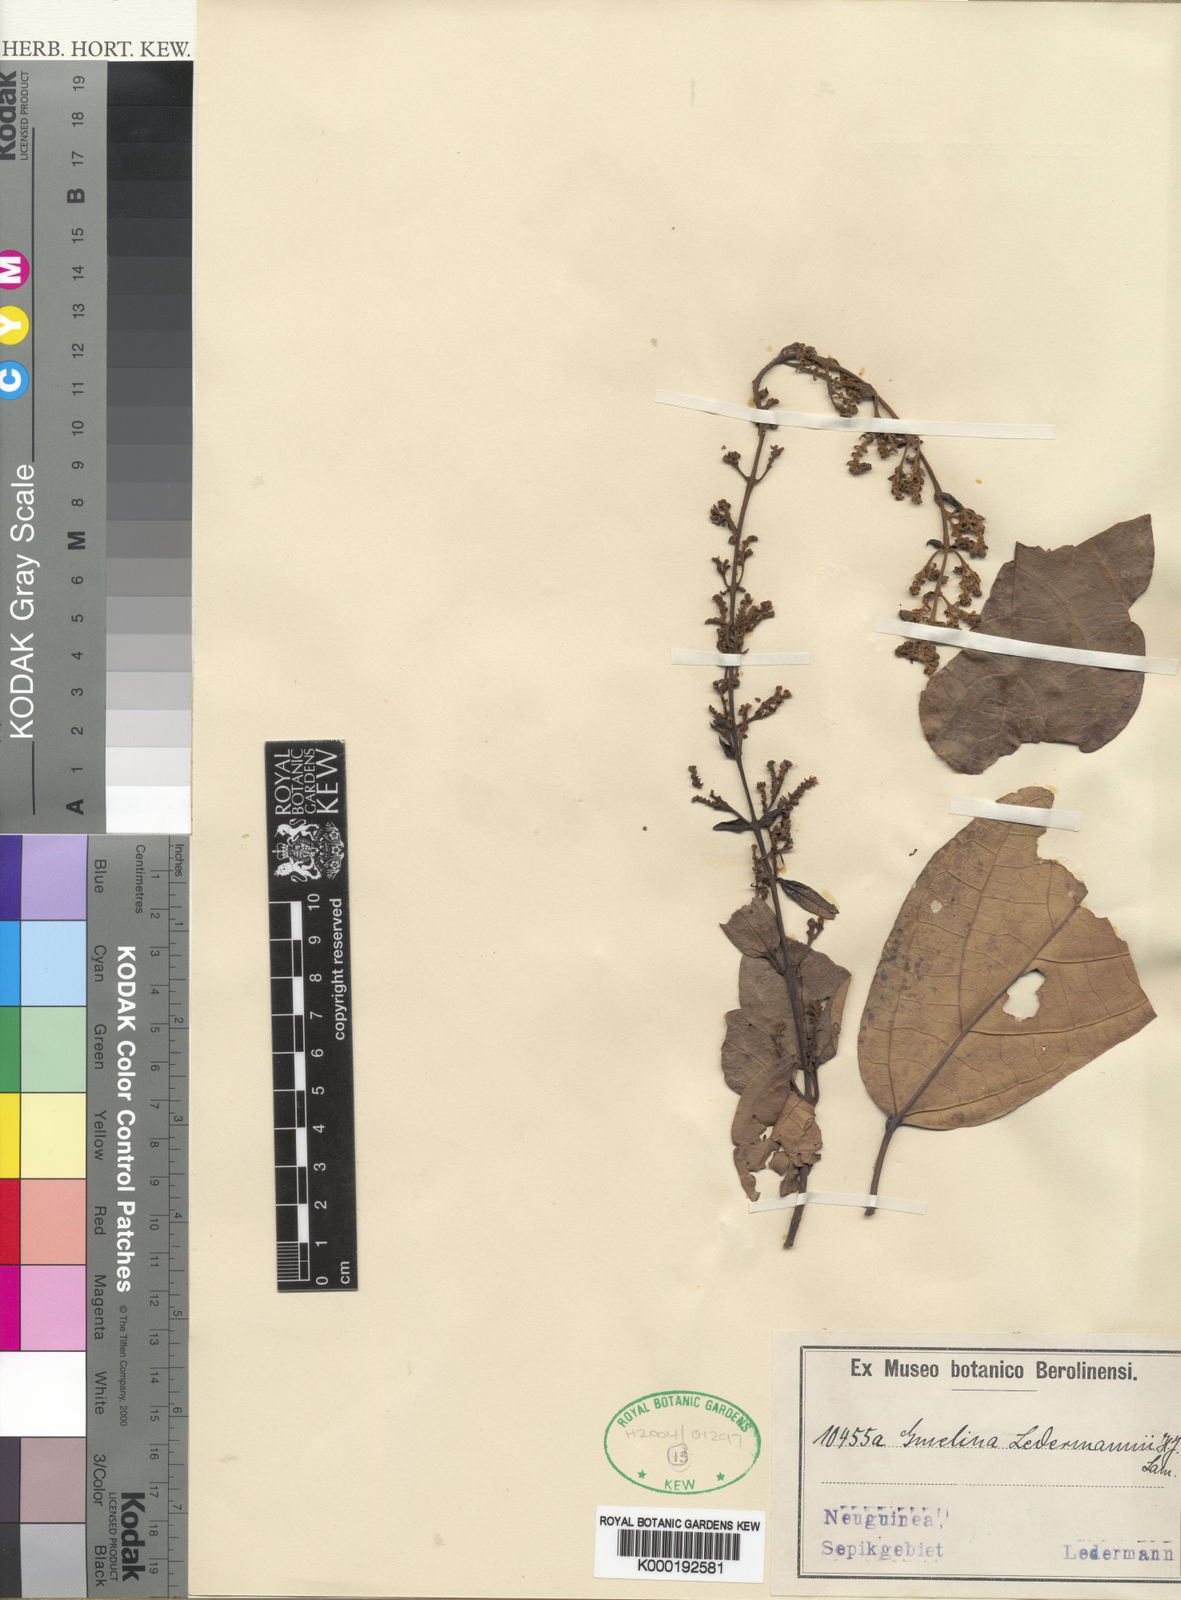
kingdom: Plantae
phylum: Tracheophyta
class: Magnoliopsida
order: Lamiales
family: Lamiaceae
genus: Gmelina
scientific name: Gmelina ledermannii
